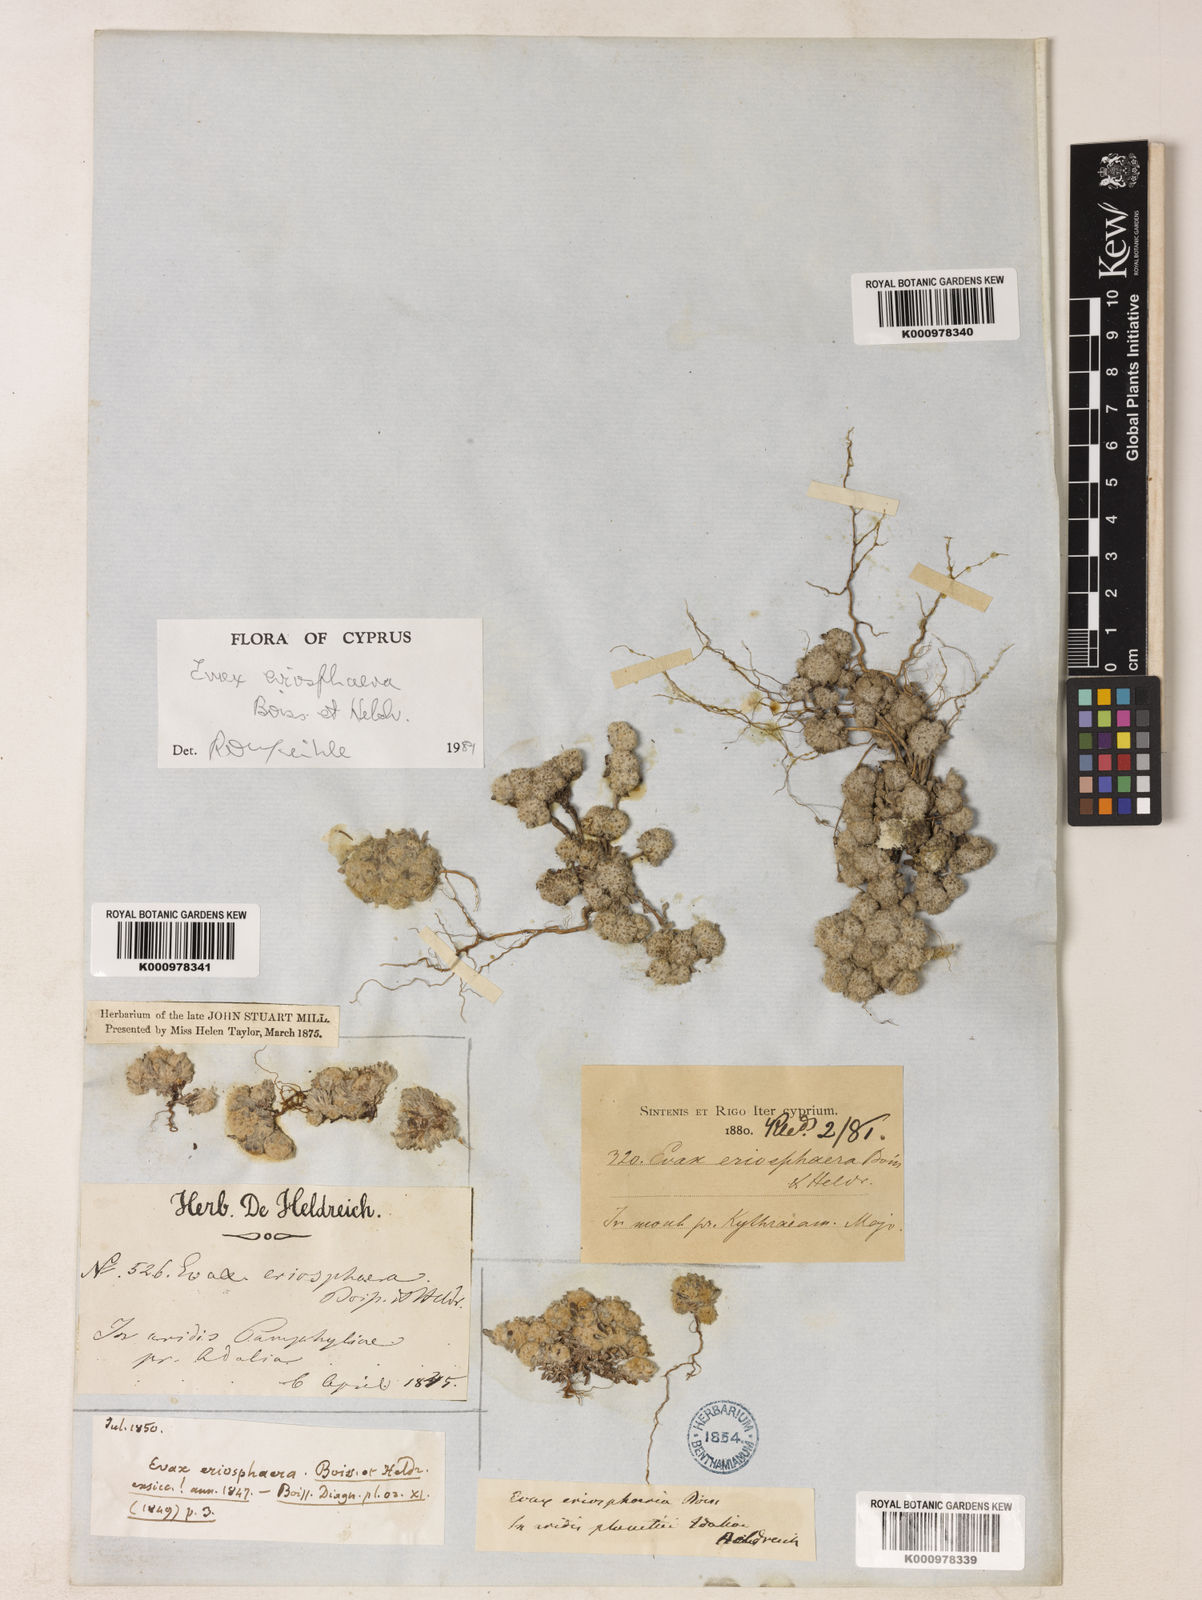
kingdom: Plantae
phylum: Tracheophyta
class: Magnoliopsida
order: Asterales
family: Asteraceae
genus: Filago
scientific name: Filago
